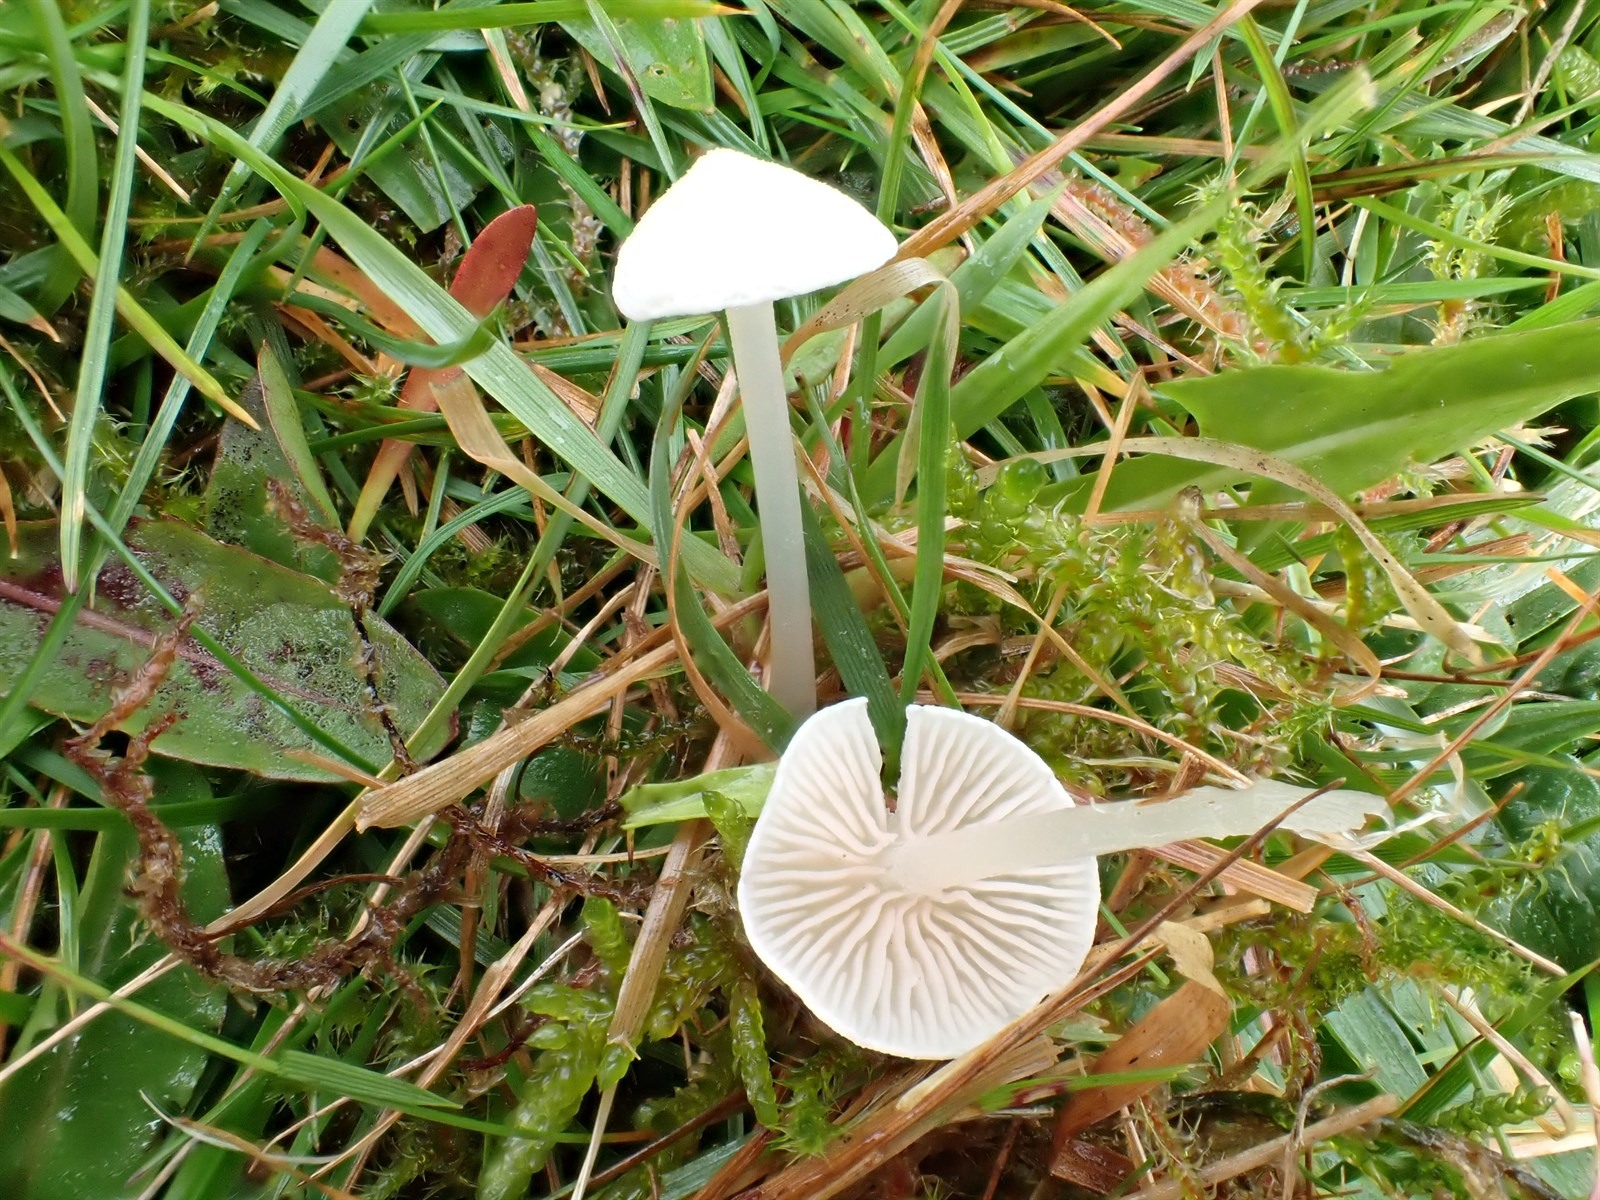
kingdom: Fungi
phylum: Basidiomycota
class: Agaricomycetes
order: Agaricales
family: Entolomataceae
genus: Entoloma
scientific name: Entoloma sericellum
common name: Cream pinkgill
